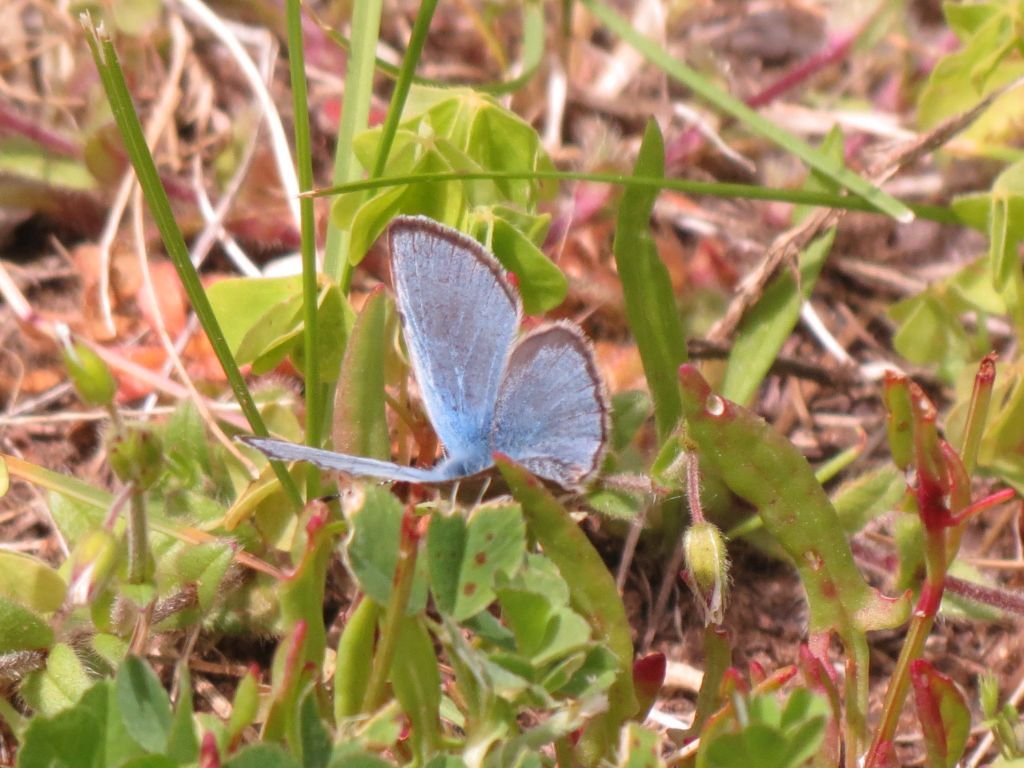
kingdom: Animalia
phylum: Arthropoda
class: Insecta
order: Lepidoptera
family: Lycaenidae
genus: Glaucopsyche
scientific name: Glaucopsyche lygdamus
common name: Silvery Blue
